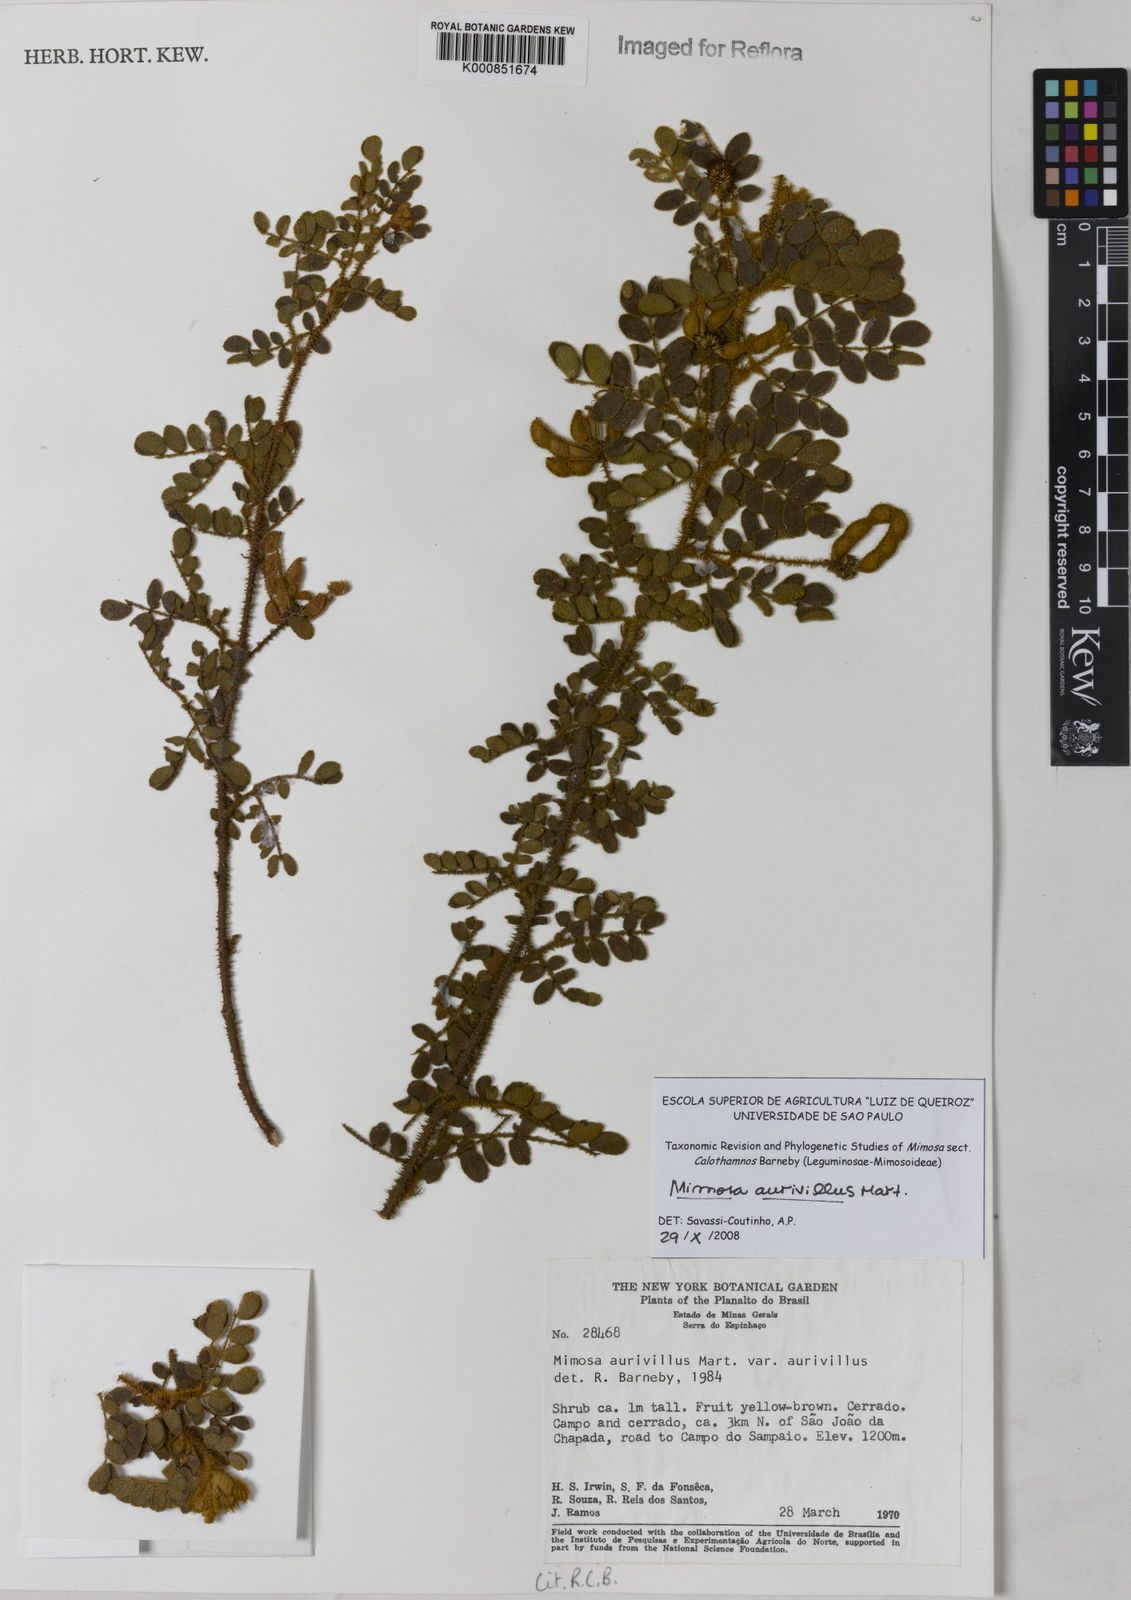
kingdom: Plantae
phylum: Tracheophyta
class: Magnoliopsida
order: Fabales
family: Fabaceae
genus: Mimosa
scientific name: Mimosa aurivillus
